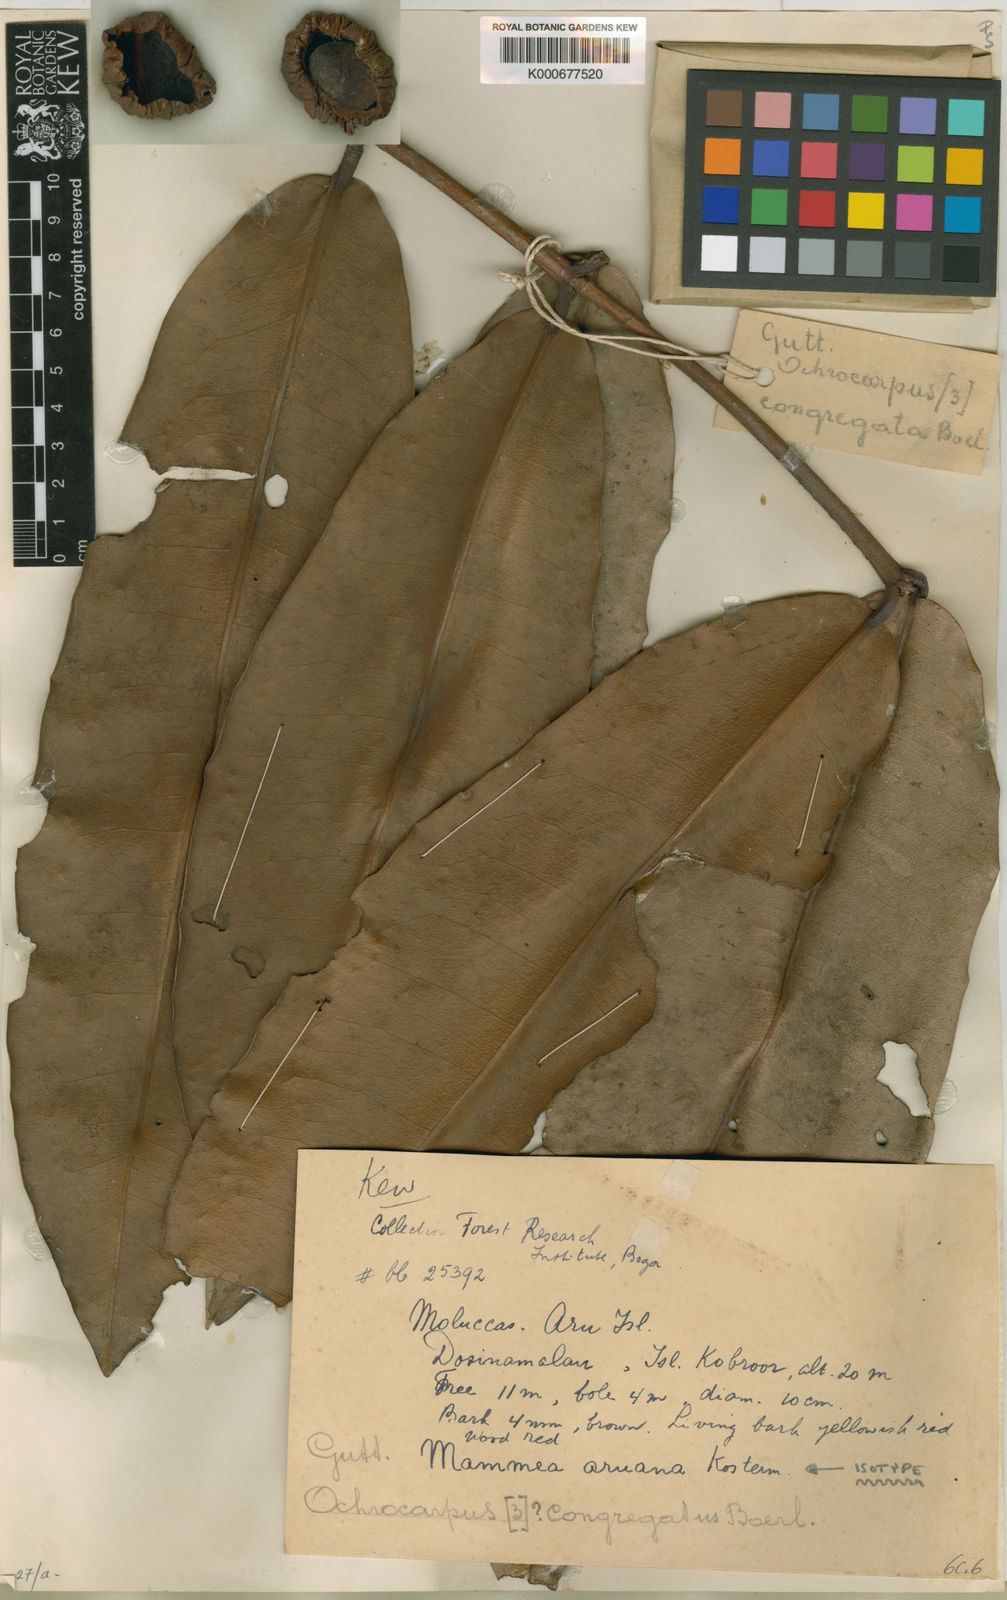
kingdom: Plantae
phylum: Tracheophyta
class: Magnoliopsida
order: Malpighiales
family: Calophyllaceae
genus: Mammea
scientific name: Mammea aruana
